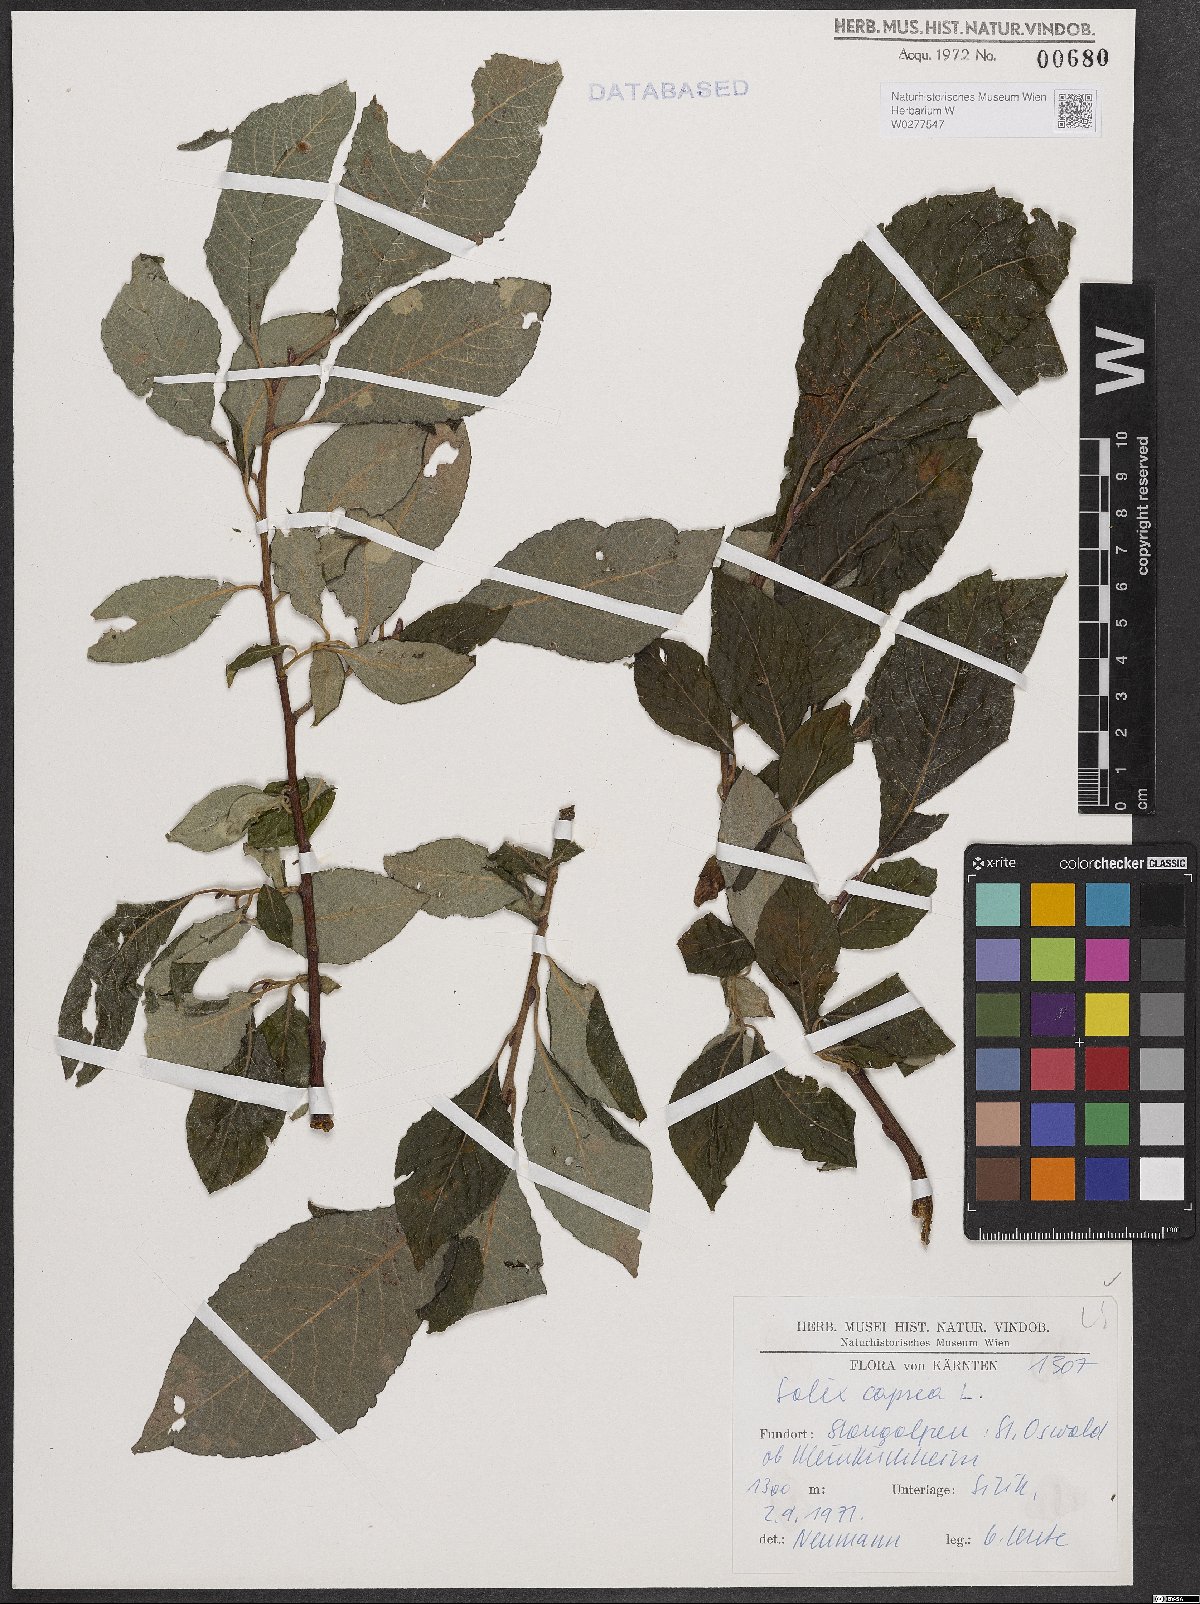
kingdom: Plantae
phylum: Tracheophyta
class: Magnoliopsida
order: Malpighiales
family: Salicaceae
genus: Salix
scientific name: Salix caprea
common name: Goat willow
